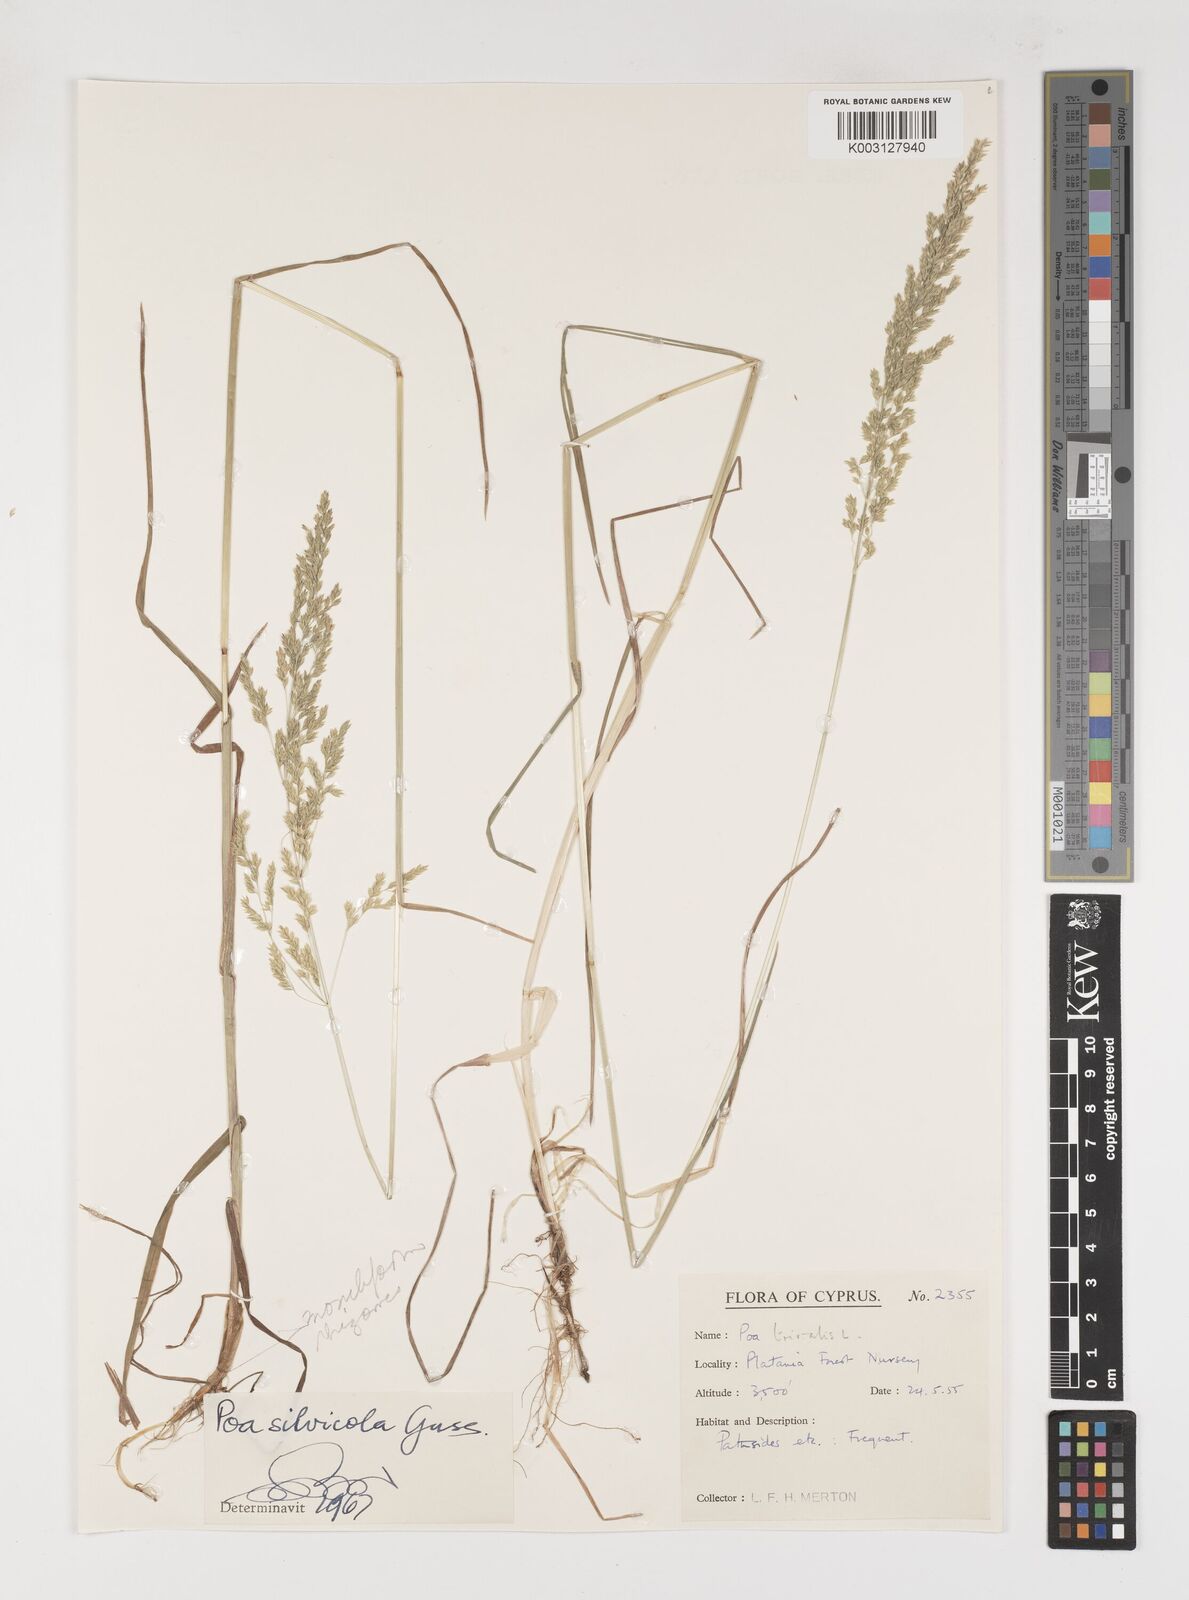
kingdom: Plantae
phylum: Tracheophyta
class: Liliopsida
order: Poales
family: Poaceae
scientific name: Poaceae
